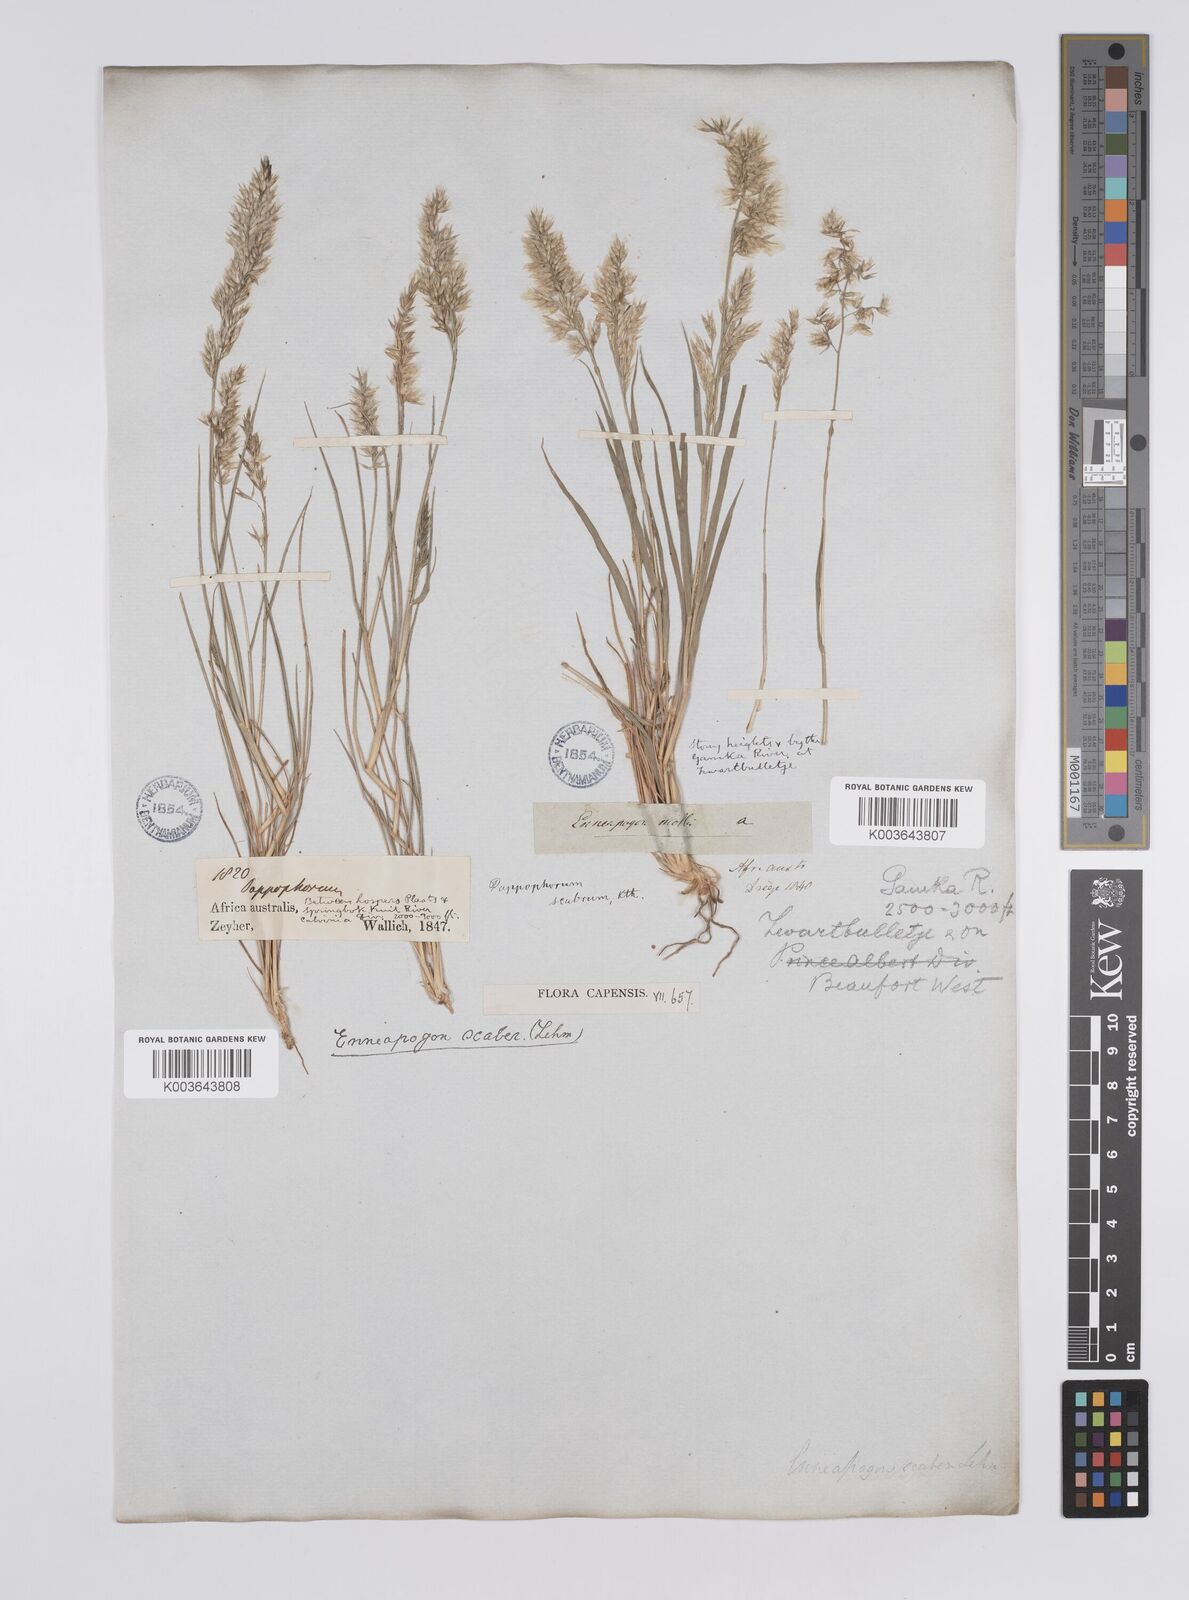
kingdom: Plantae
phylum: Tracheophyta
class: Liliopsida
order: Poales
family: Poaceae
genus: Enneapogon
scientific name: Enneapogon scaber
